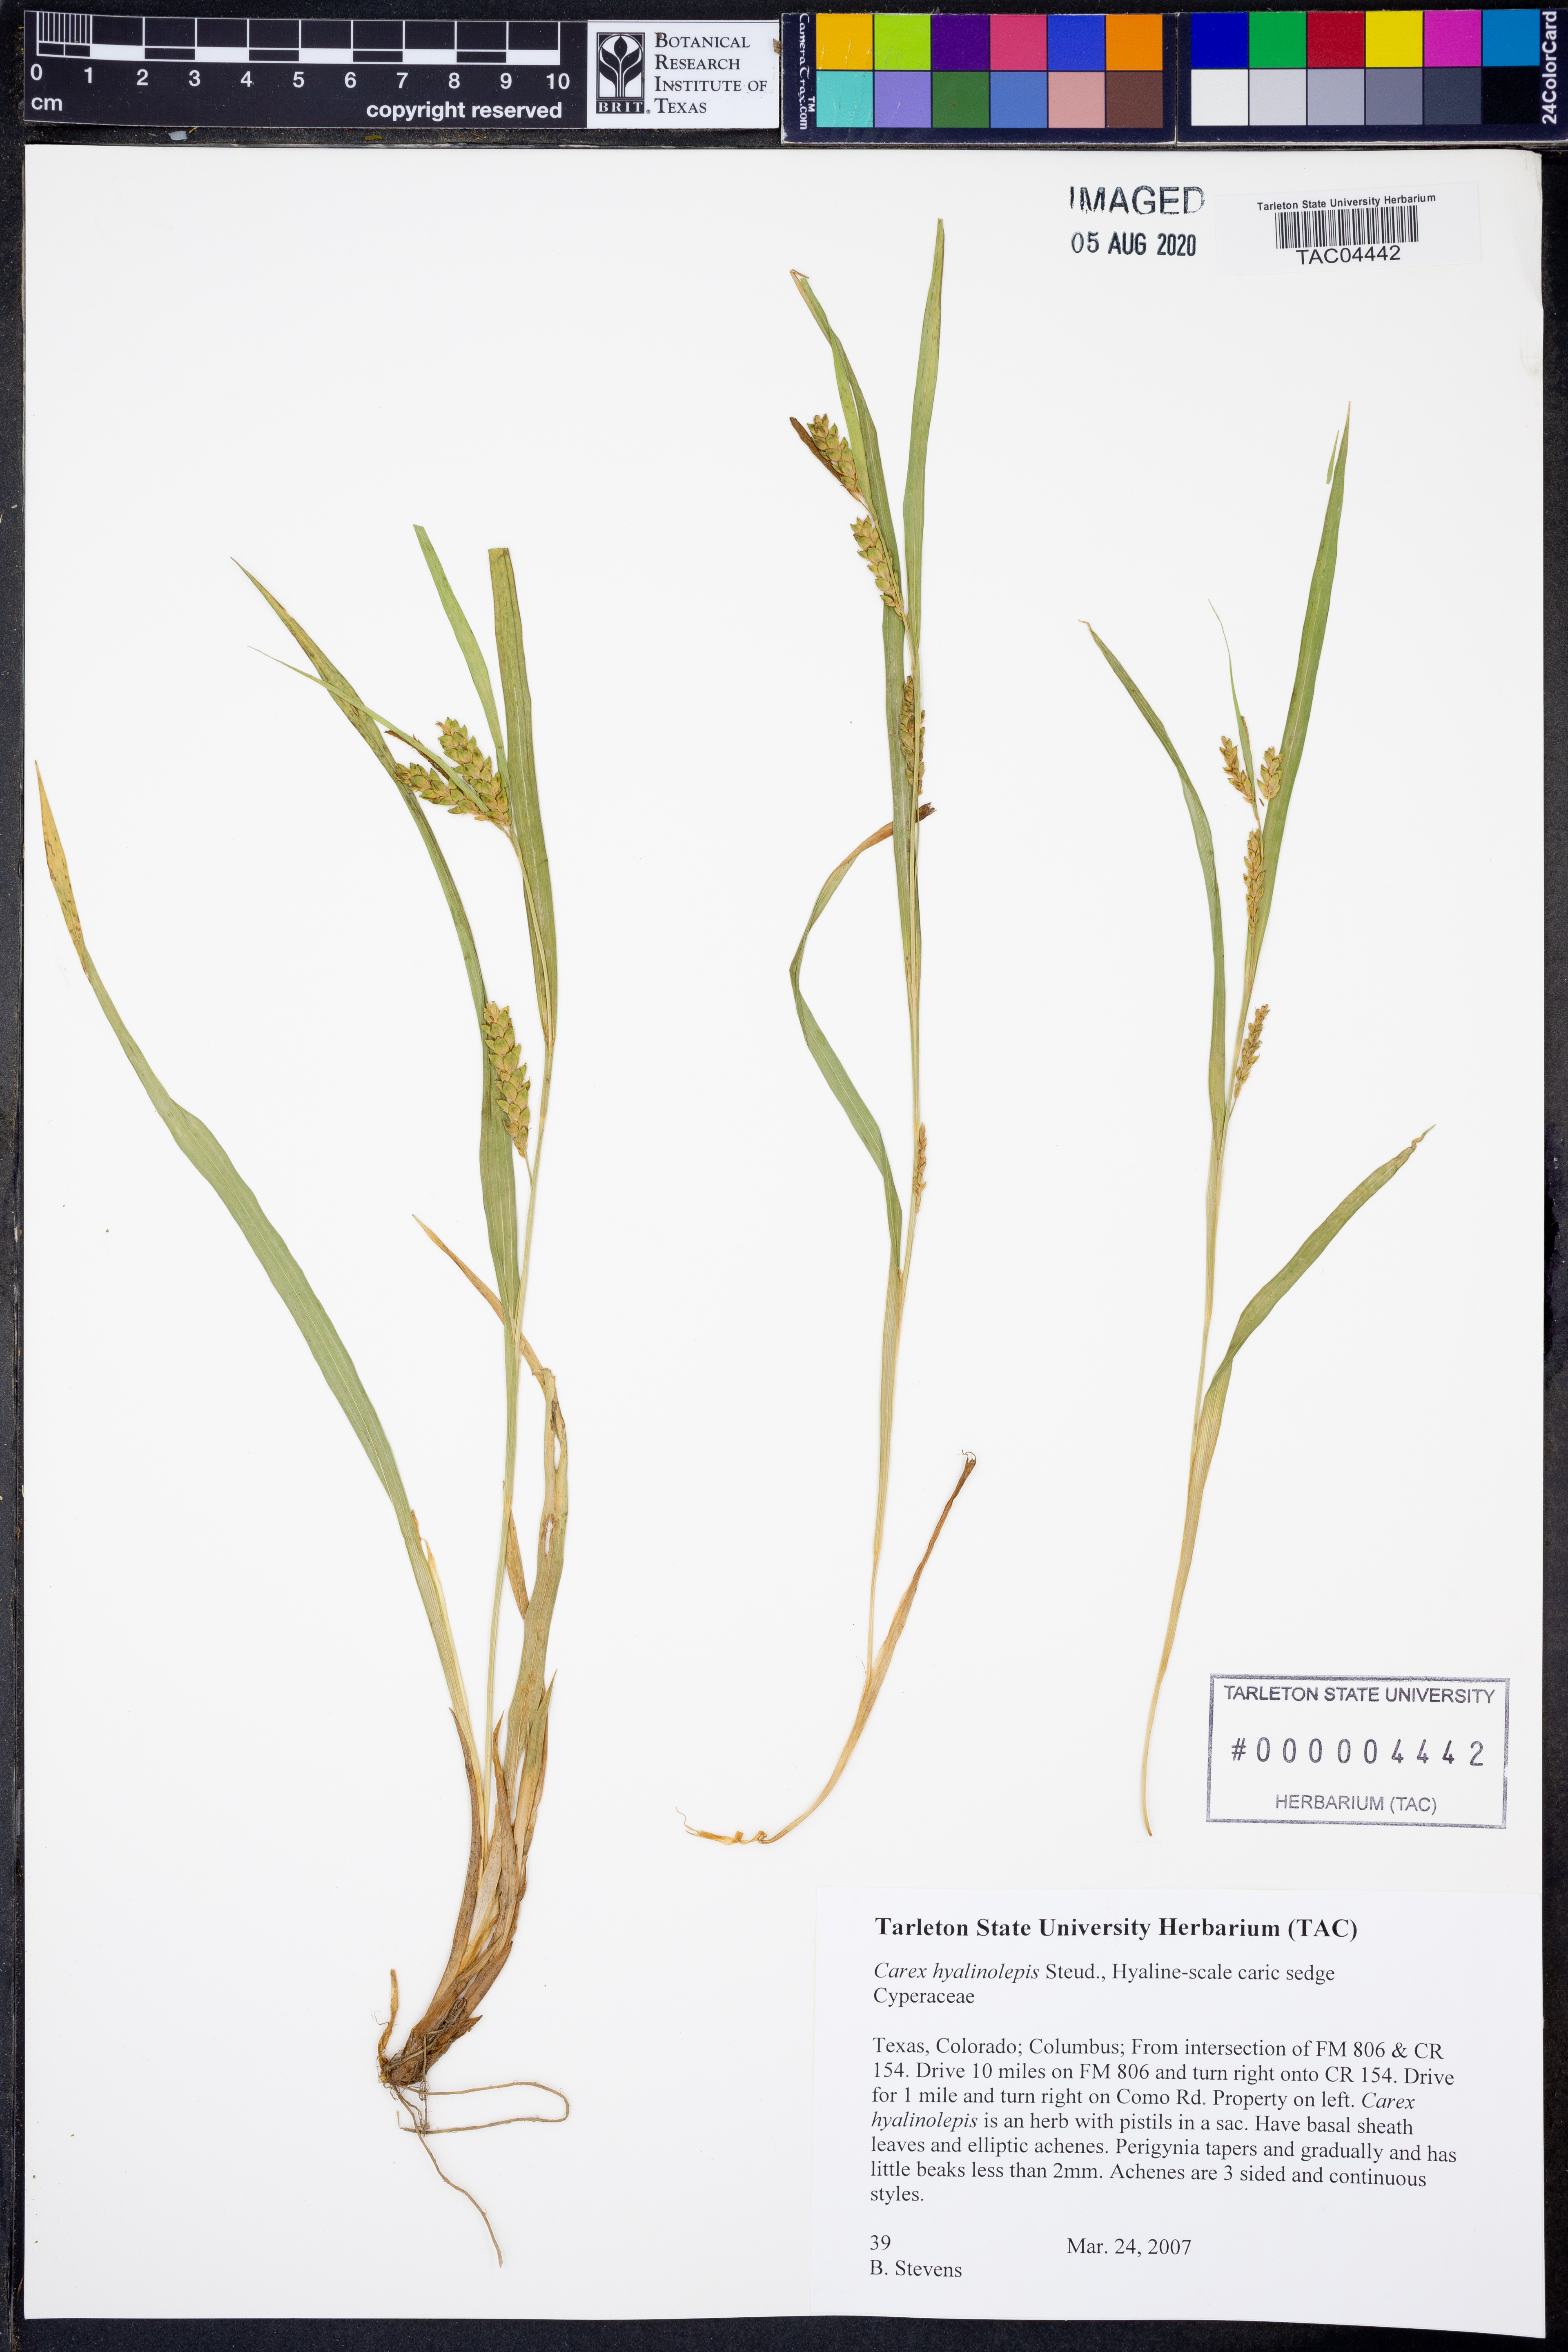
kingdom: Plantae
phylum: Tracheophyta
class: Liliopsida
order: Poales
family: Cyperaceae
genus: Carex
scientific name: Carex hyalinolepis
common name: Shoreline sedge
